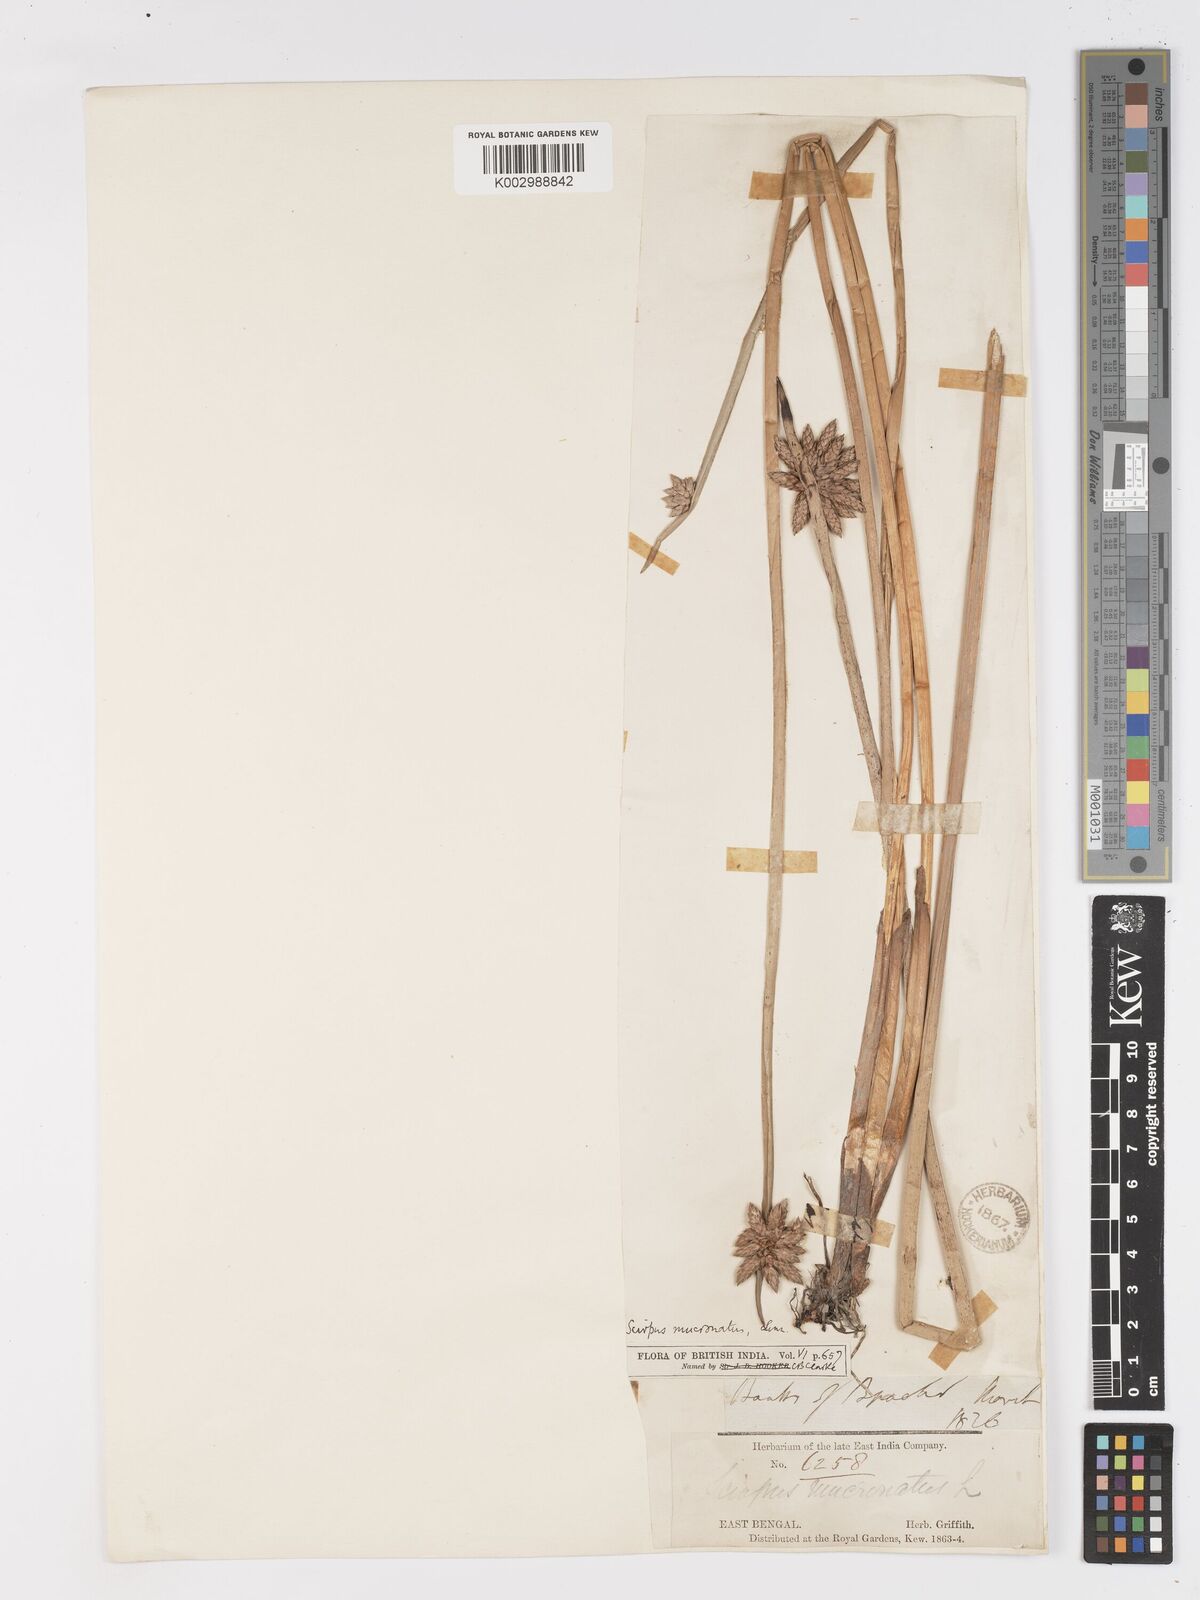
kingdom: Plantae
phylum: Tracheophyta
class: Liliopsida
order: Poales
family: Cyperaceae
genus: Schoenoplectiella
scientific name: Schoenoplectiella mucronata
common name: Bog bulrush
